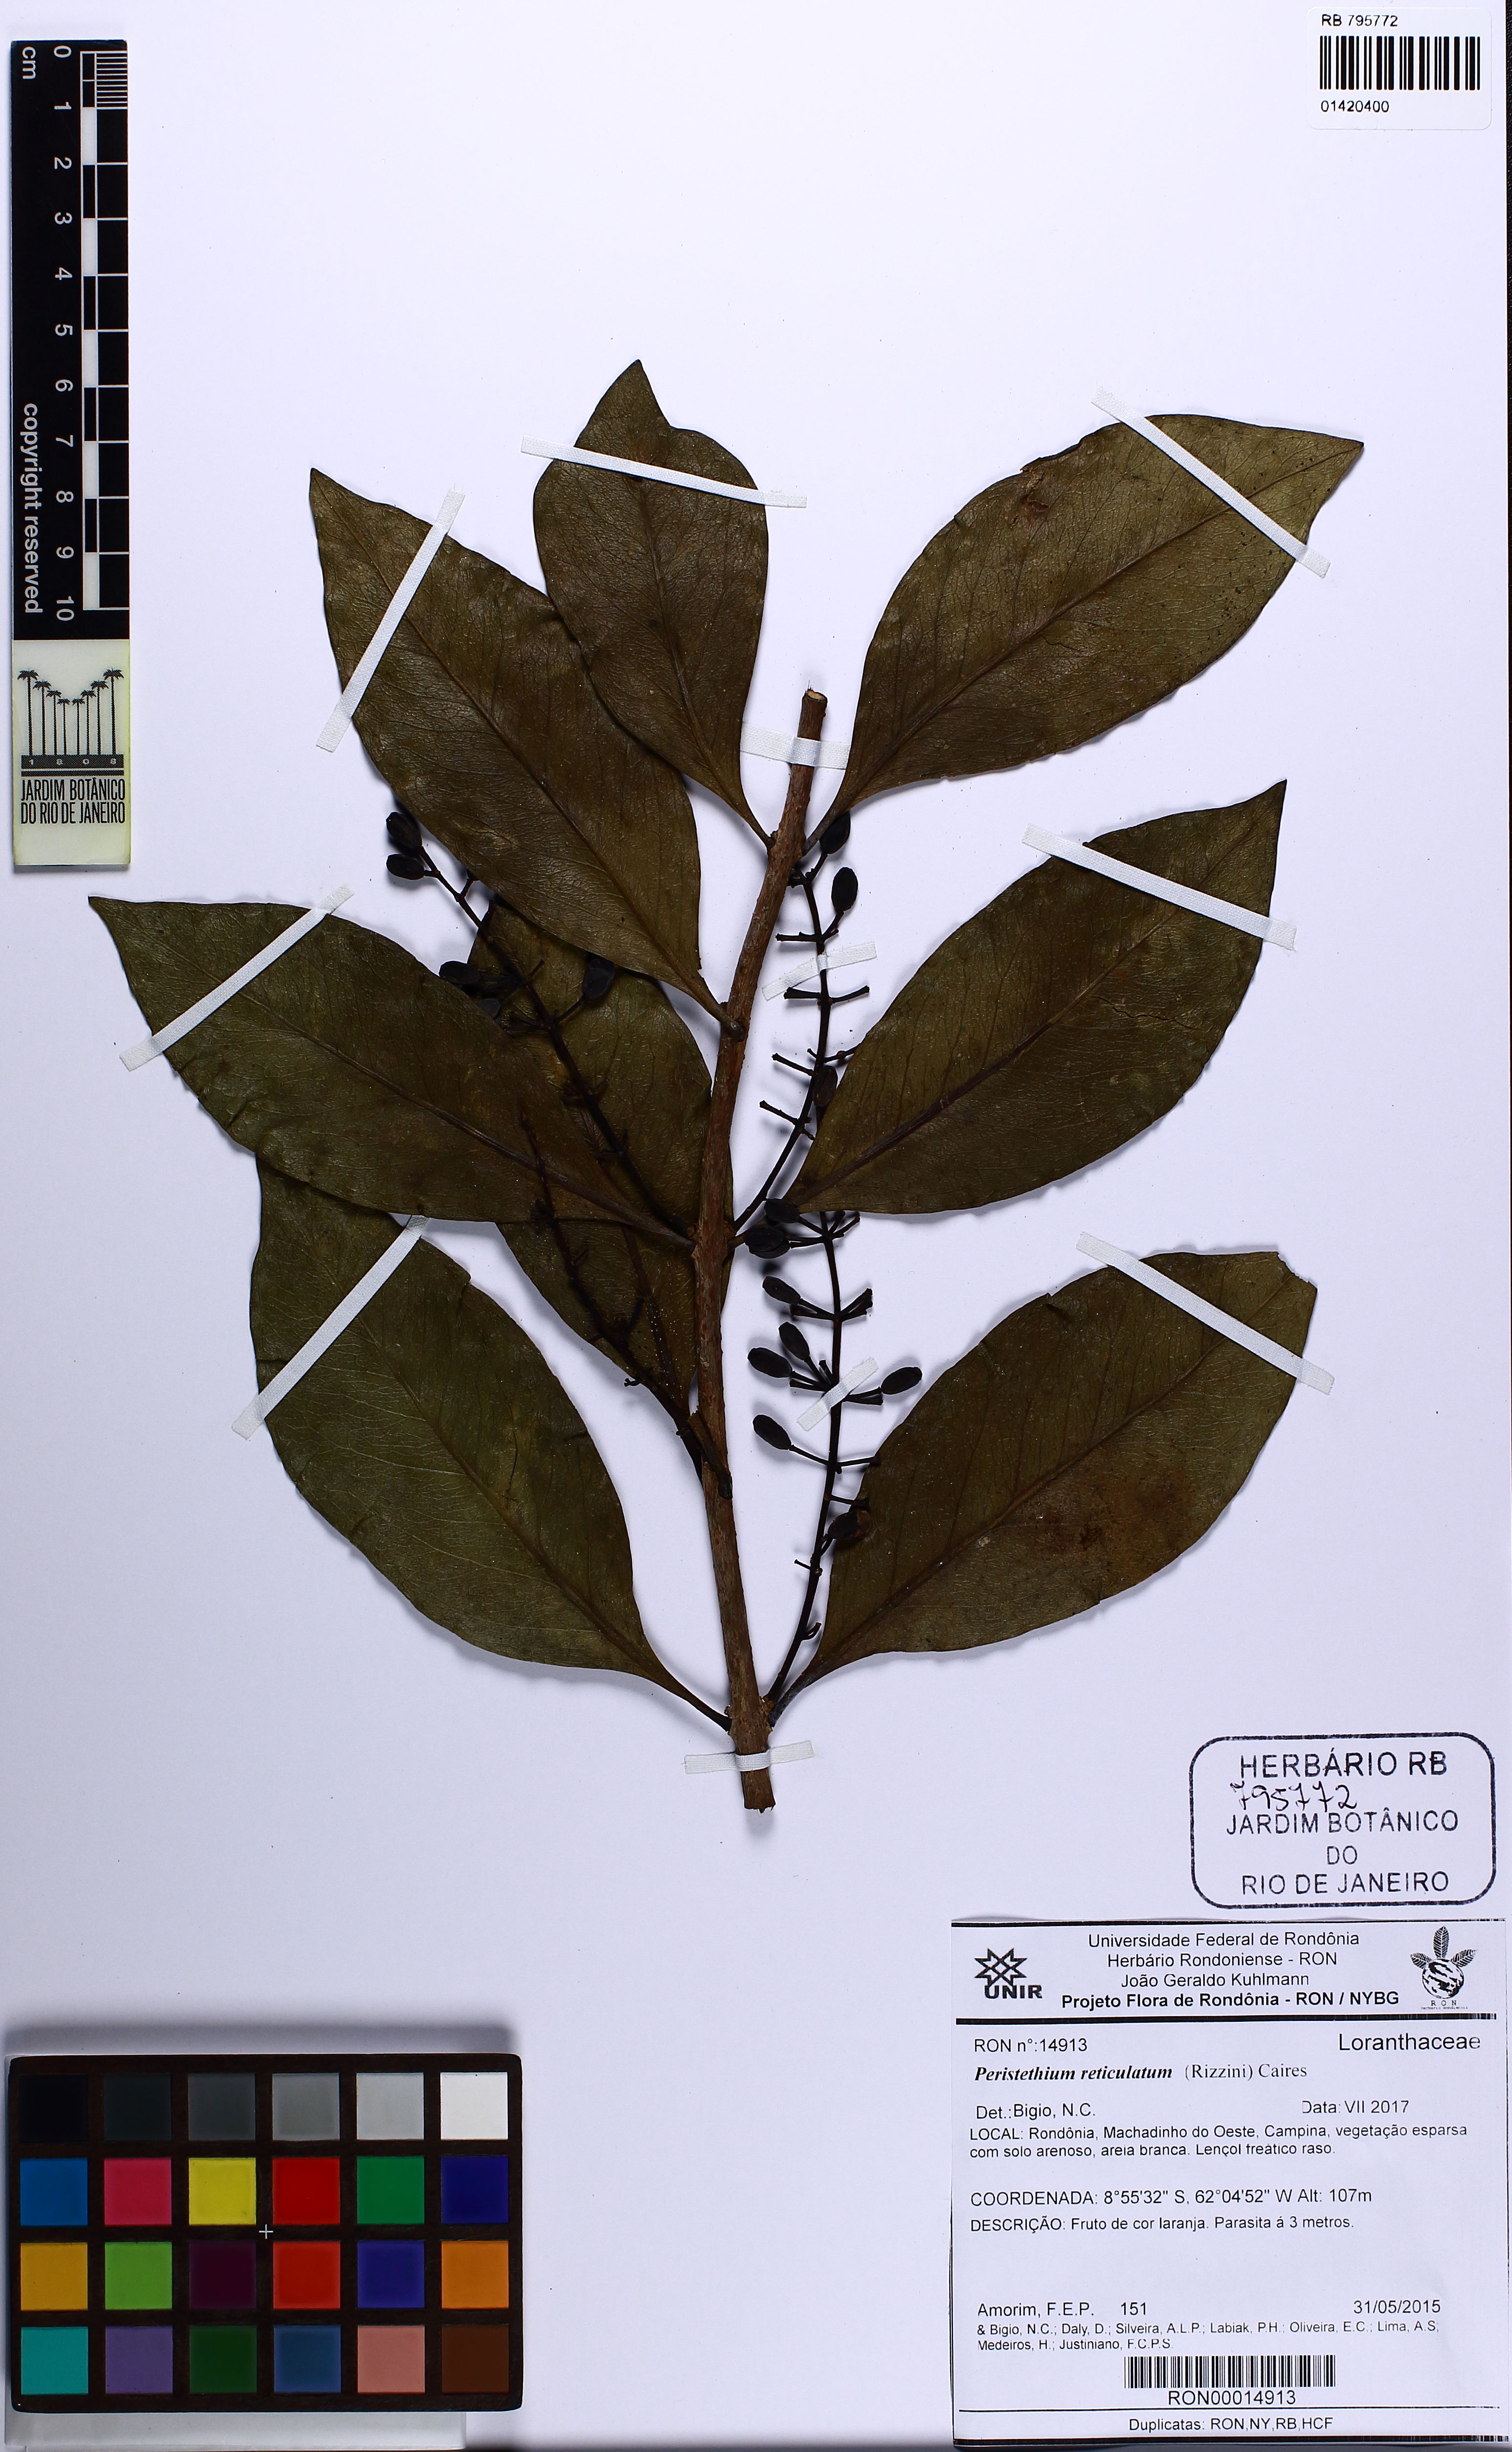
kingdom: Plantae
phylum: Tracheophyta
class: Magnoliopsida
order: Santalales
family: Loranthaceae
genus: Peristethium
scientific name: Peristethium reticulatum
